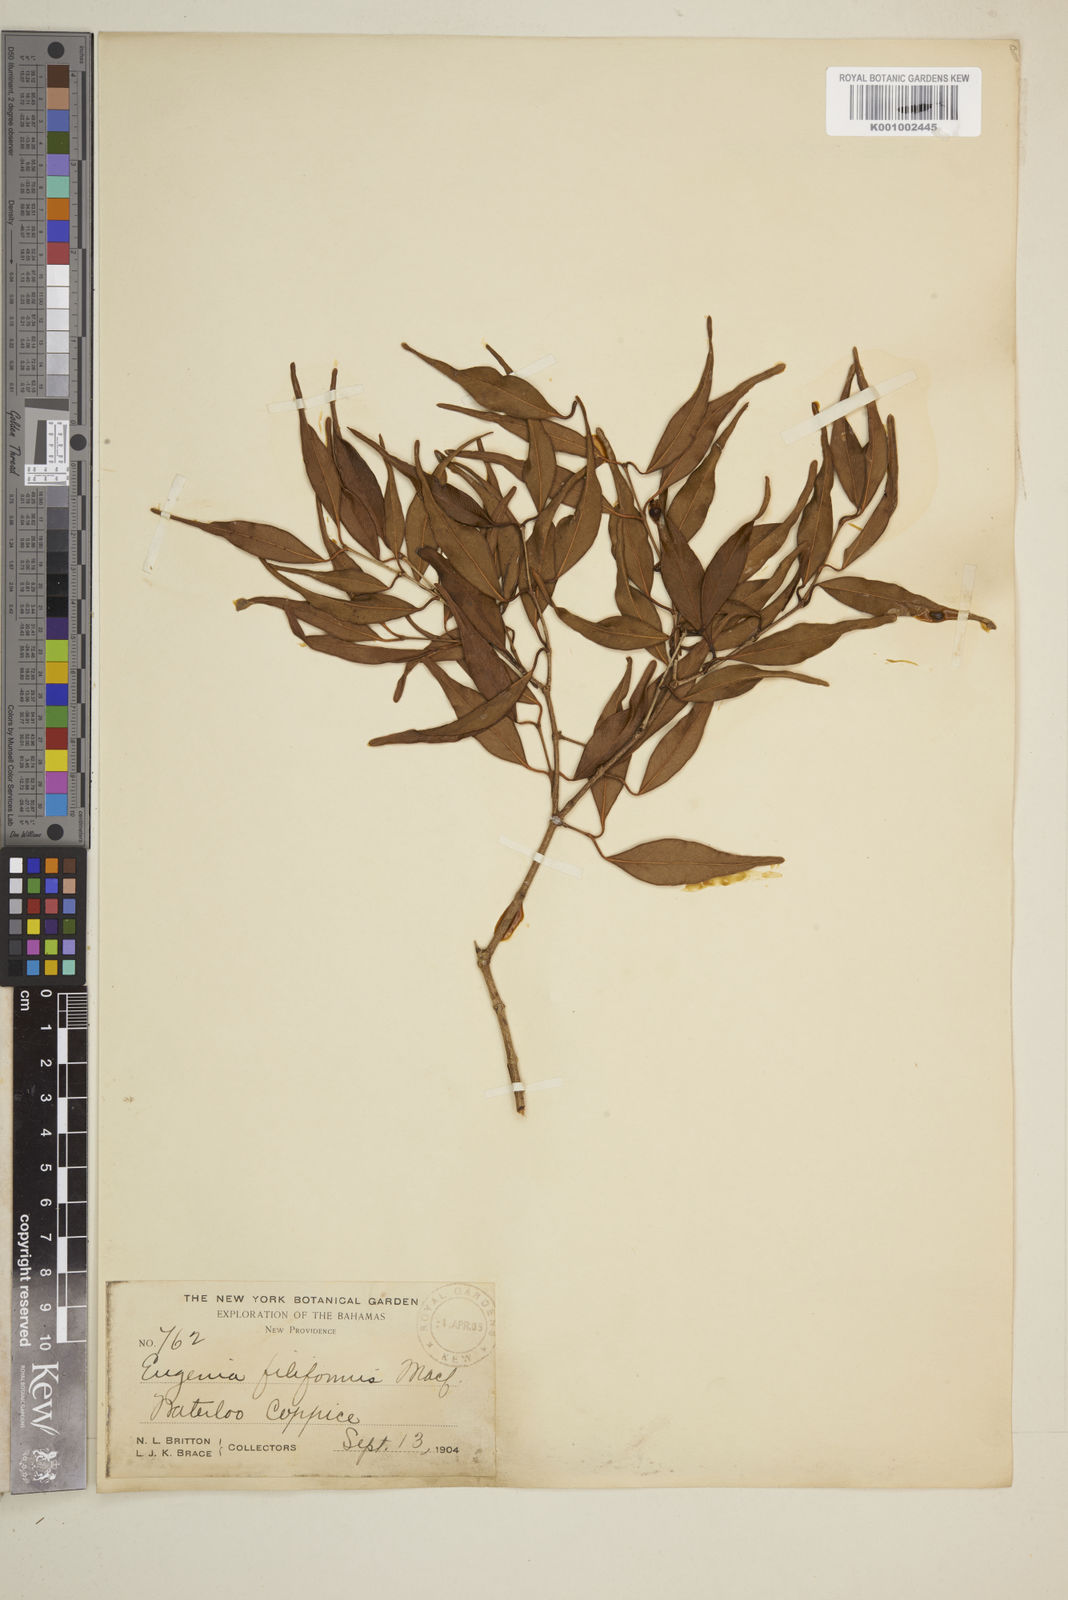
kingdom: Plantae
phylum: Tracheophyta
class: Magnoliopsida
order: Myrtales
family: Myrtaceae
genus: Eugenia
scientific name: Eugenia confusa
